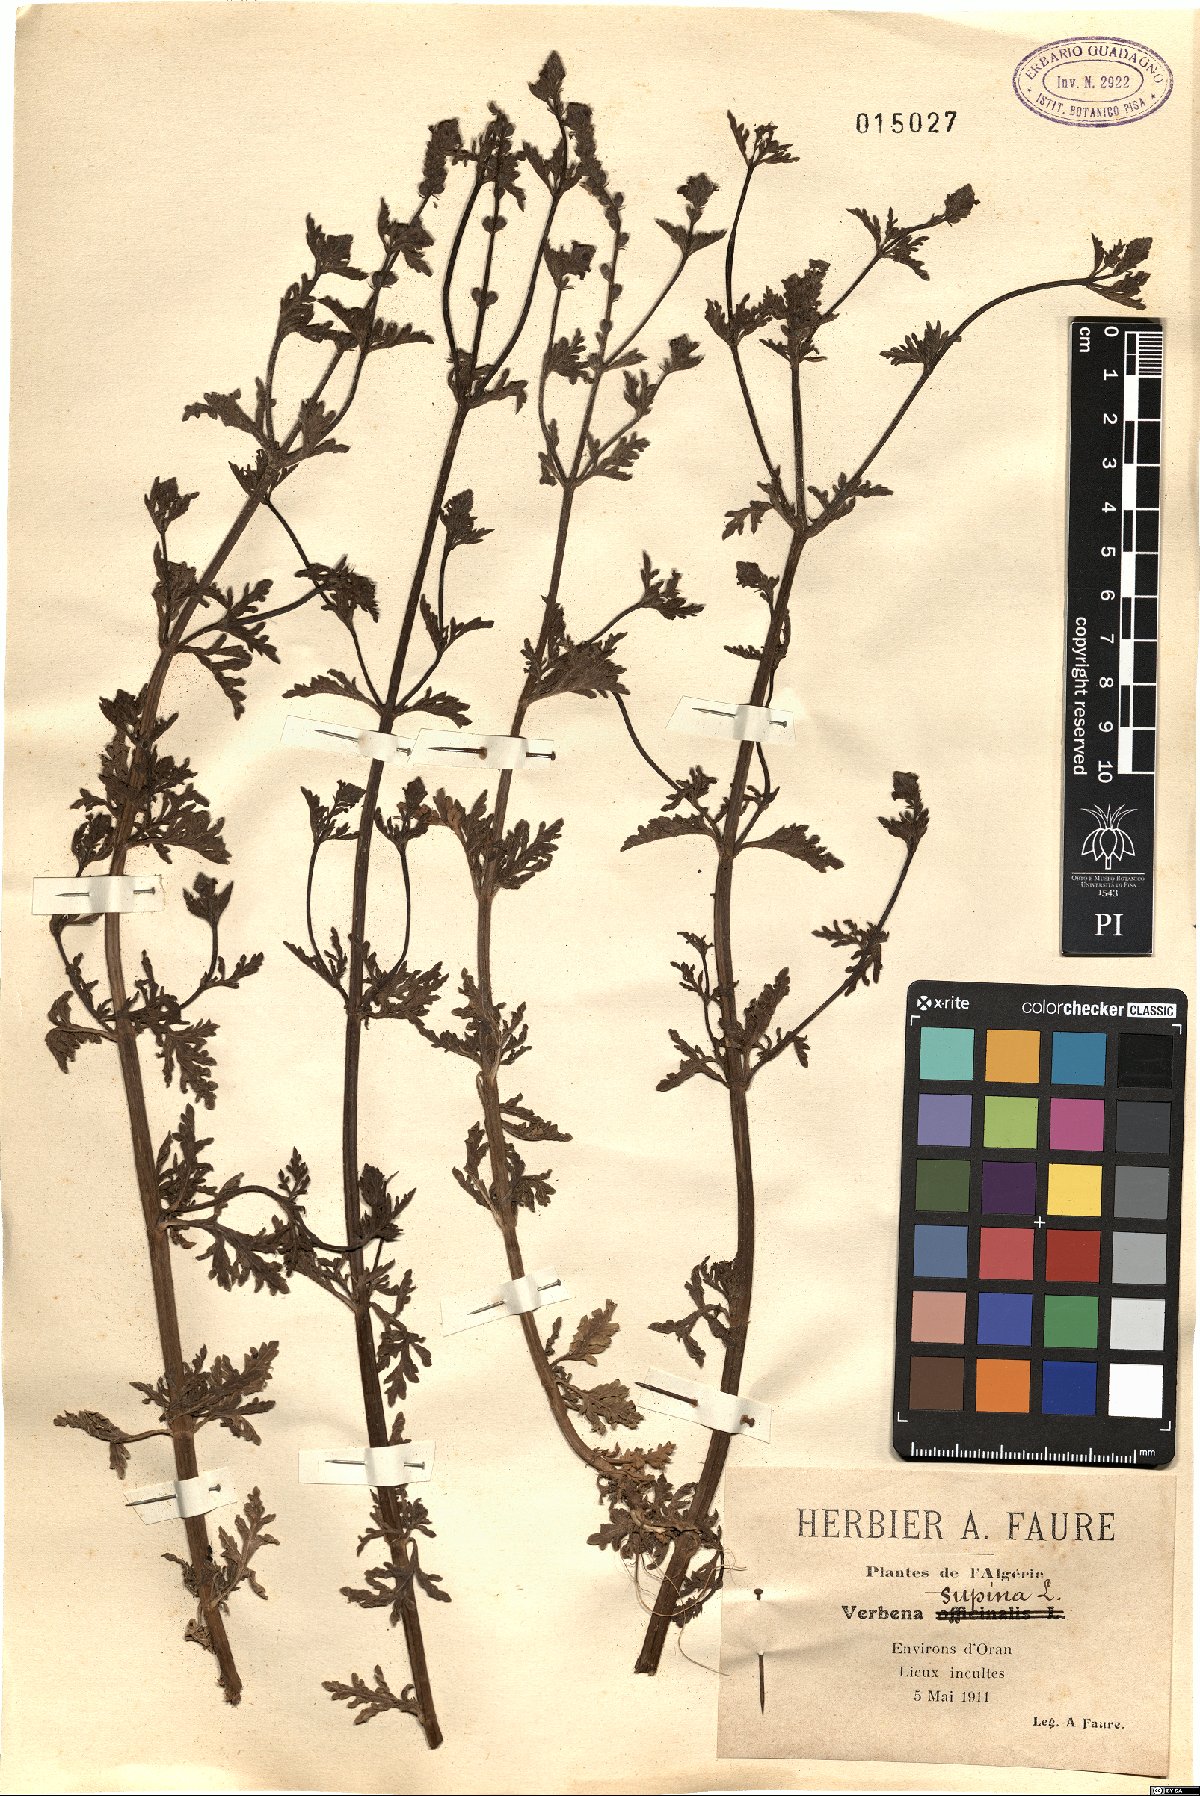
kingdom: Plantae
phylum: Tracheophyta
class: Magnoliopsida
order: Lamiales
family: Verbenaceae
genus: Verbena
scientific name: Verbena supina
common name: Trailing vervain
